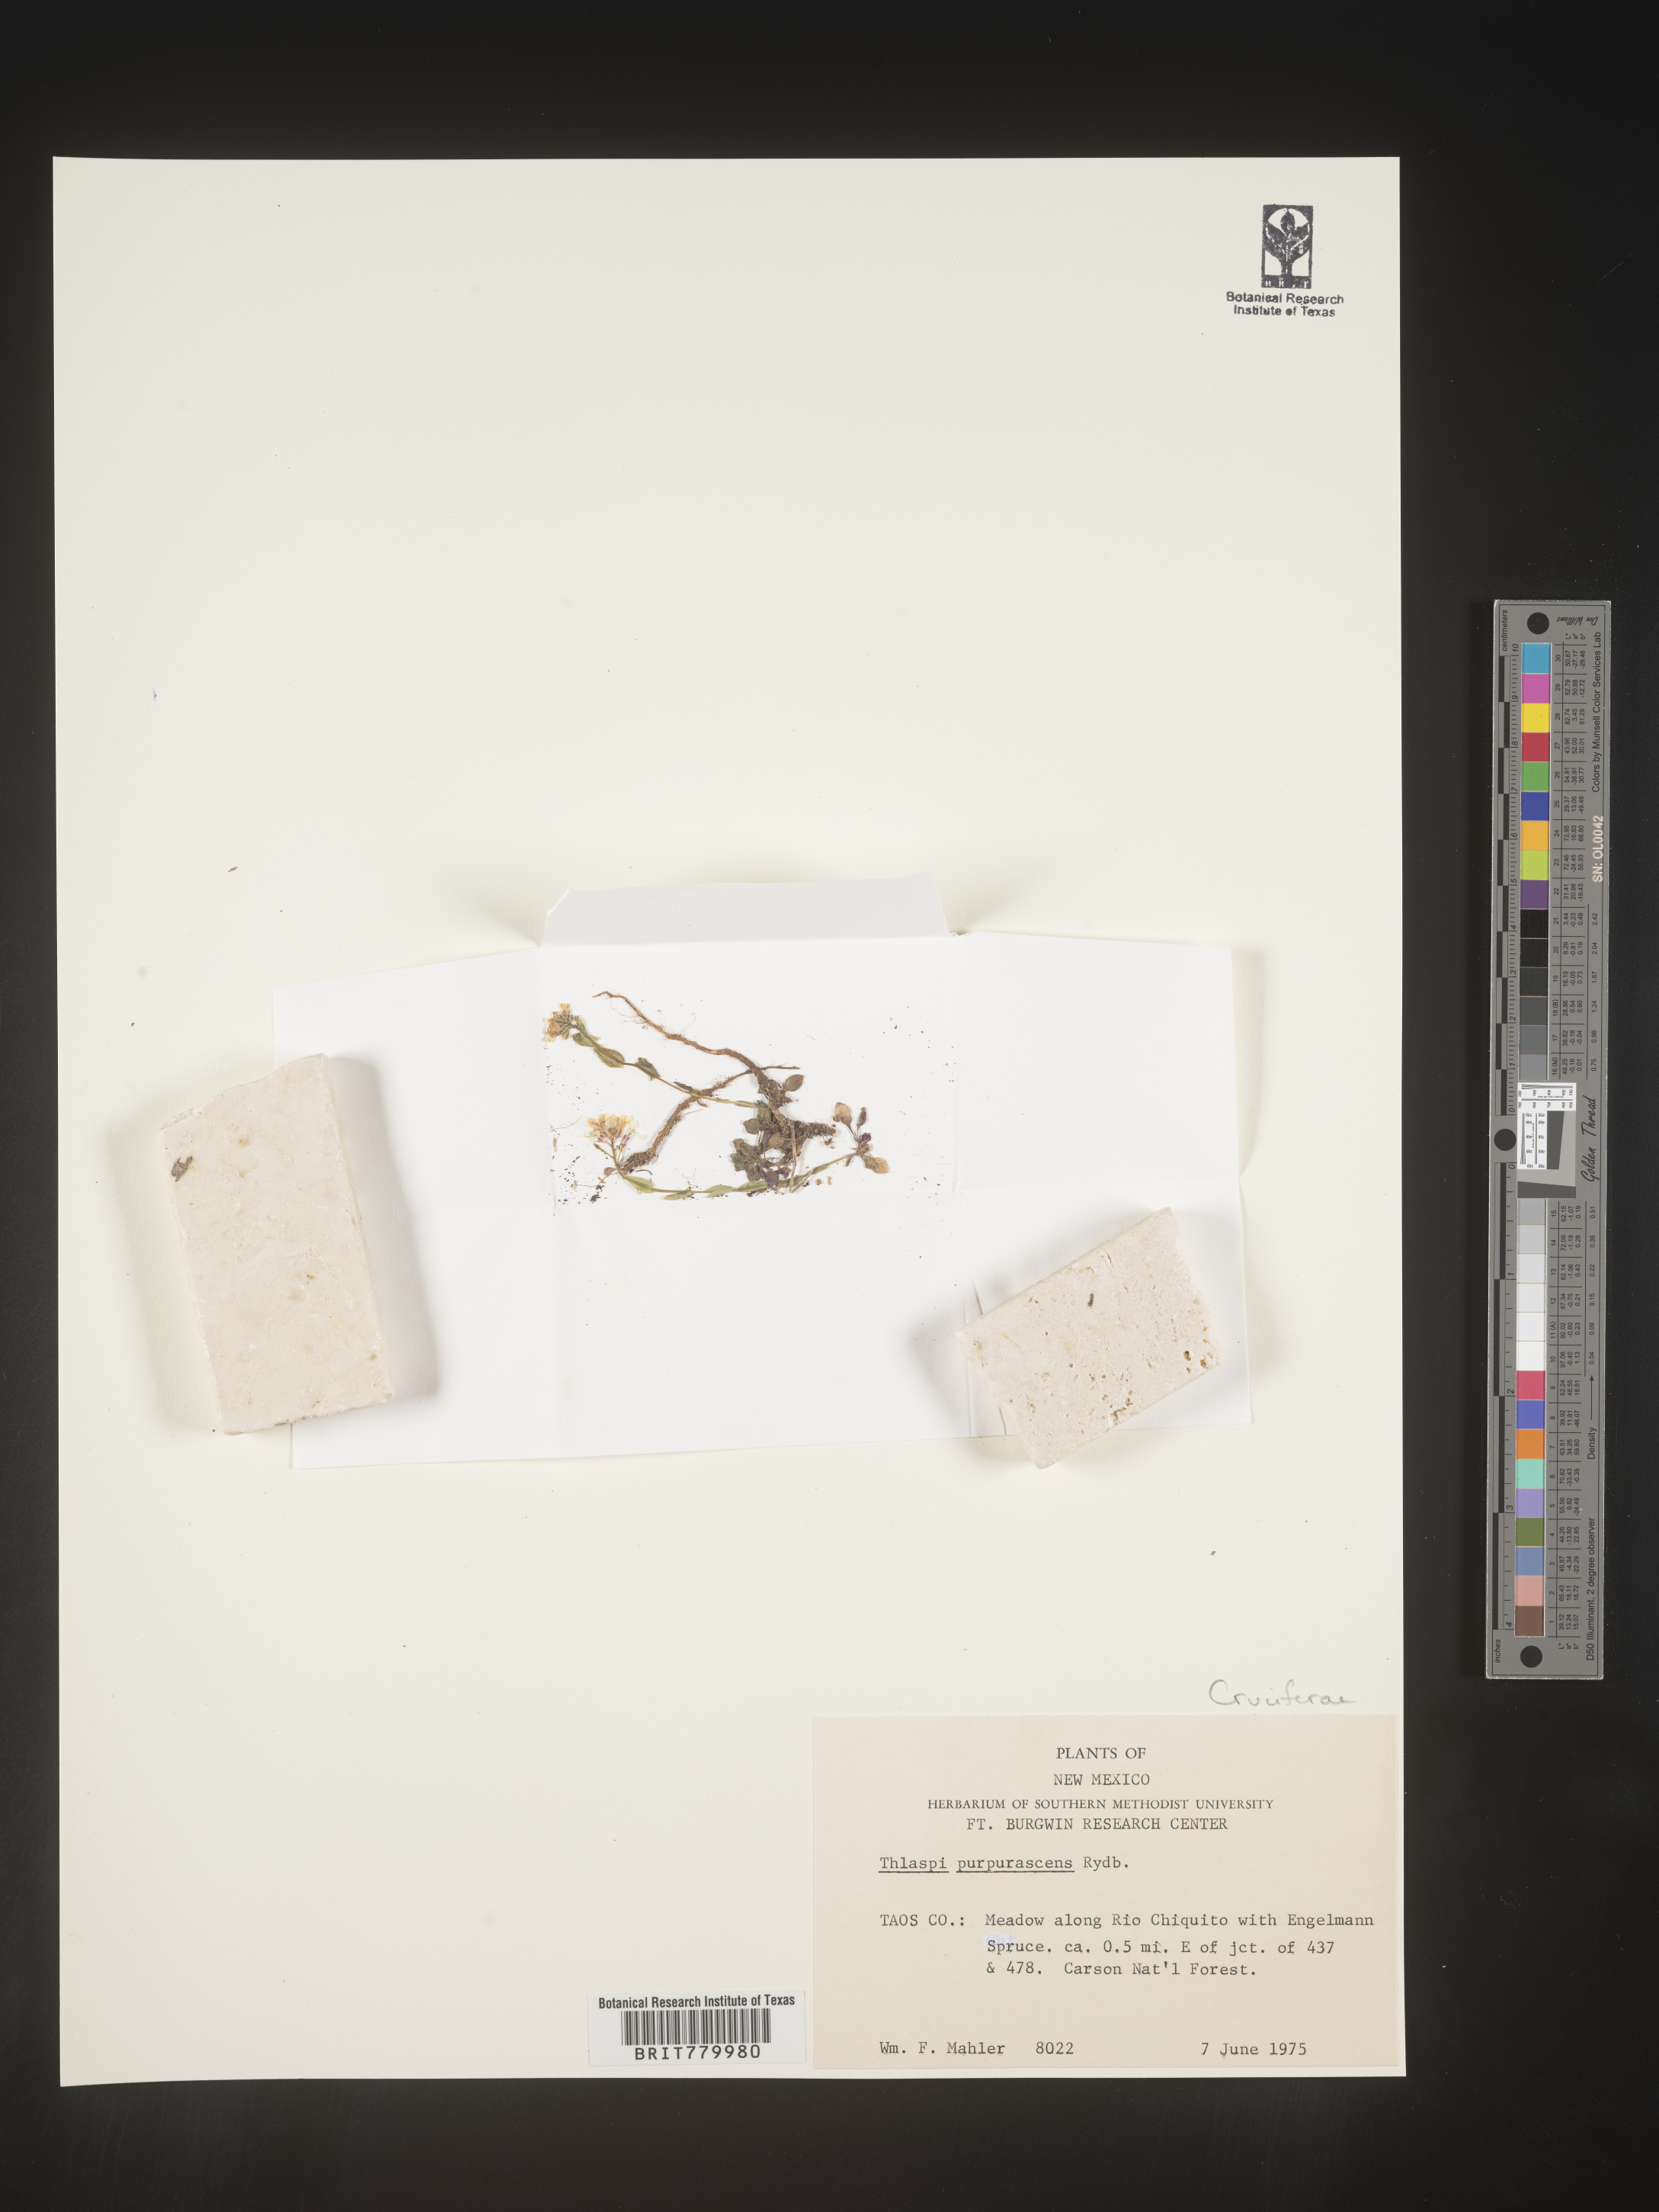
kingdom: Plantae
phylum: Tracheophyta
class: Magnoliopsida
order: Brassicales
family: Brassicaceae
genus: Thlaspi
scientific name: Thlaspi
